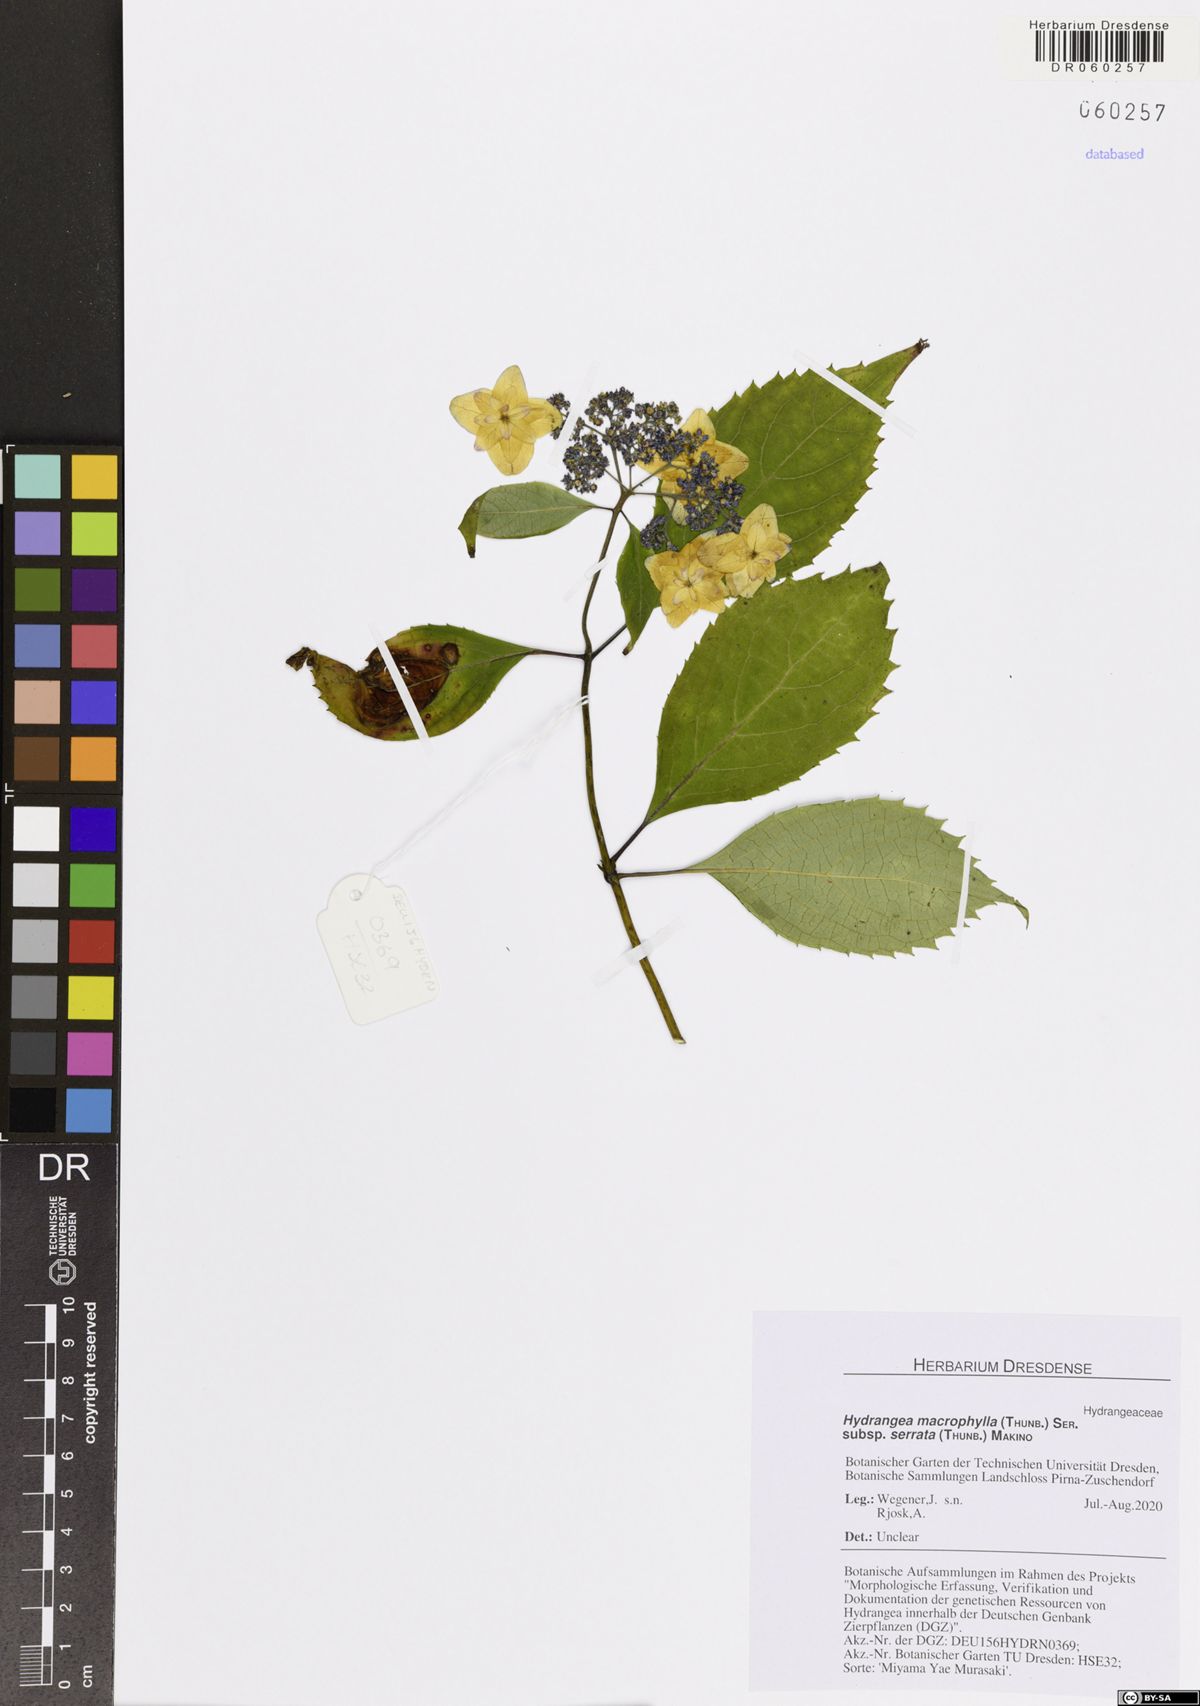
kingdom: Plantae
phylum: Tracheophyta
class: Magnoliopsida
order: Cornales
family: Hydrangeaceae
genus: Hydrangea
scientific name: Hydrangea serrata
